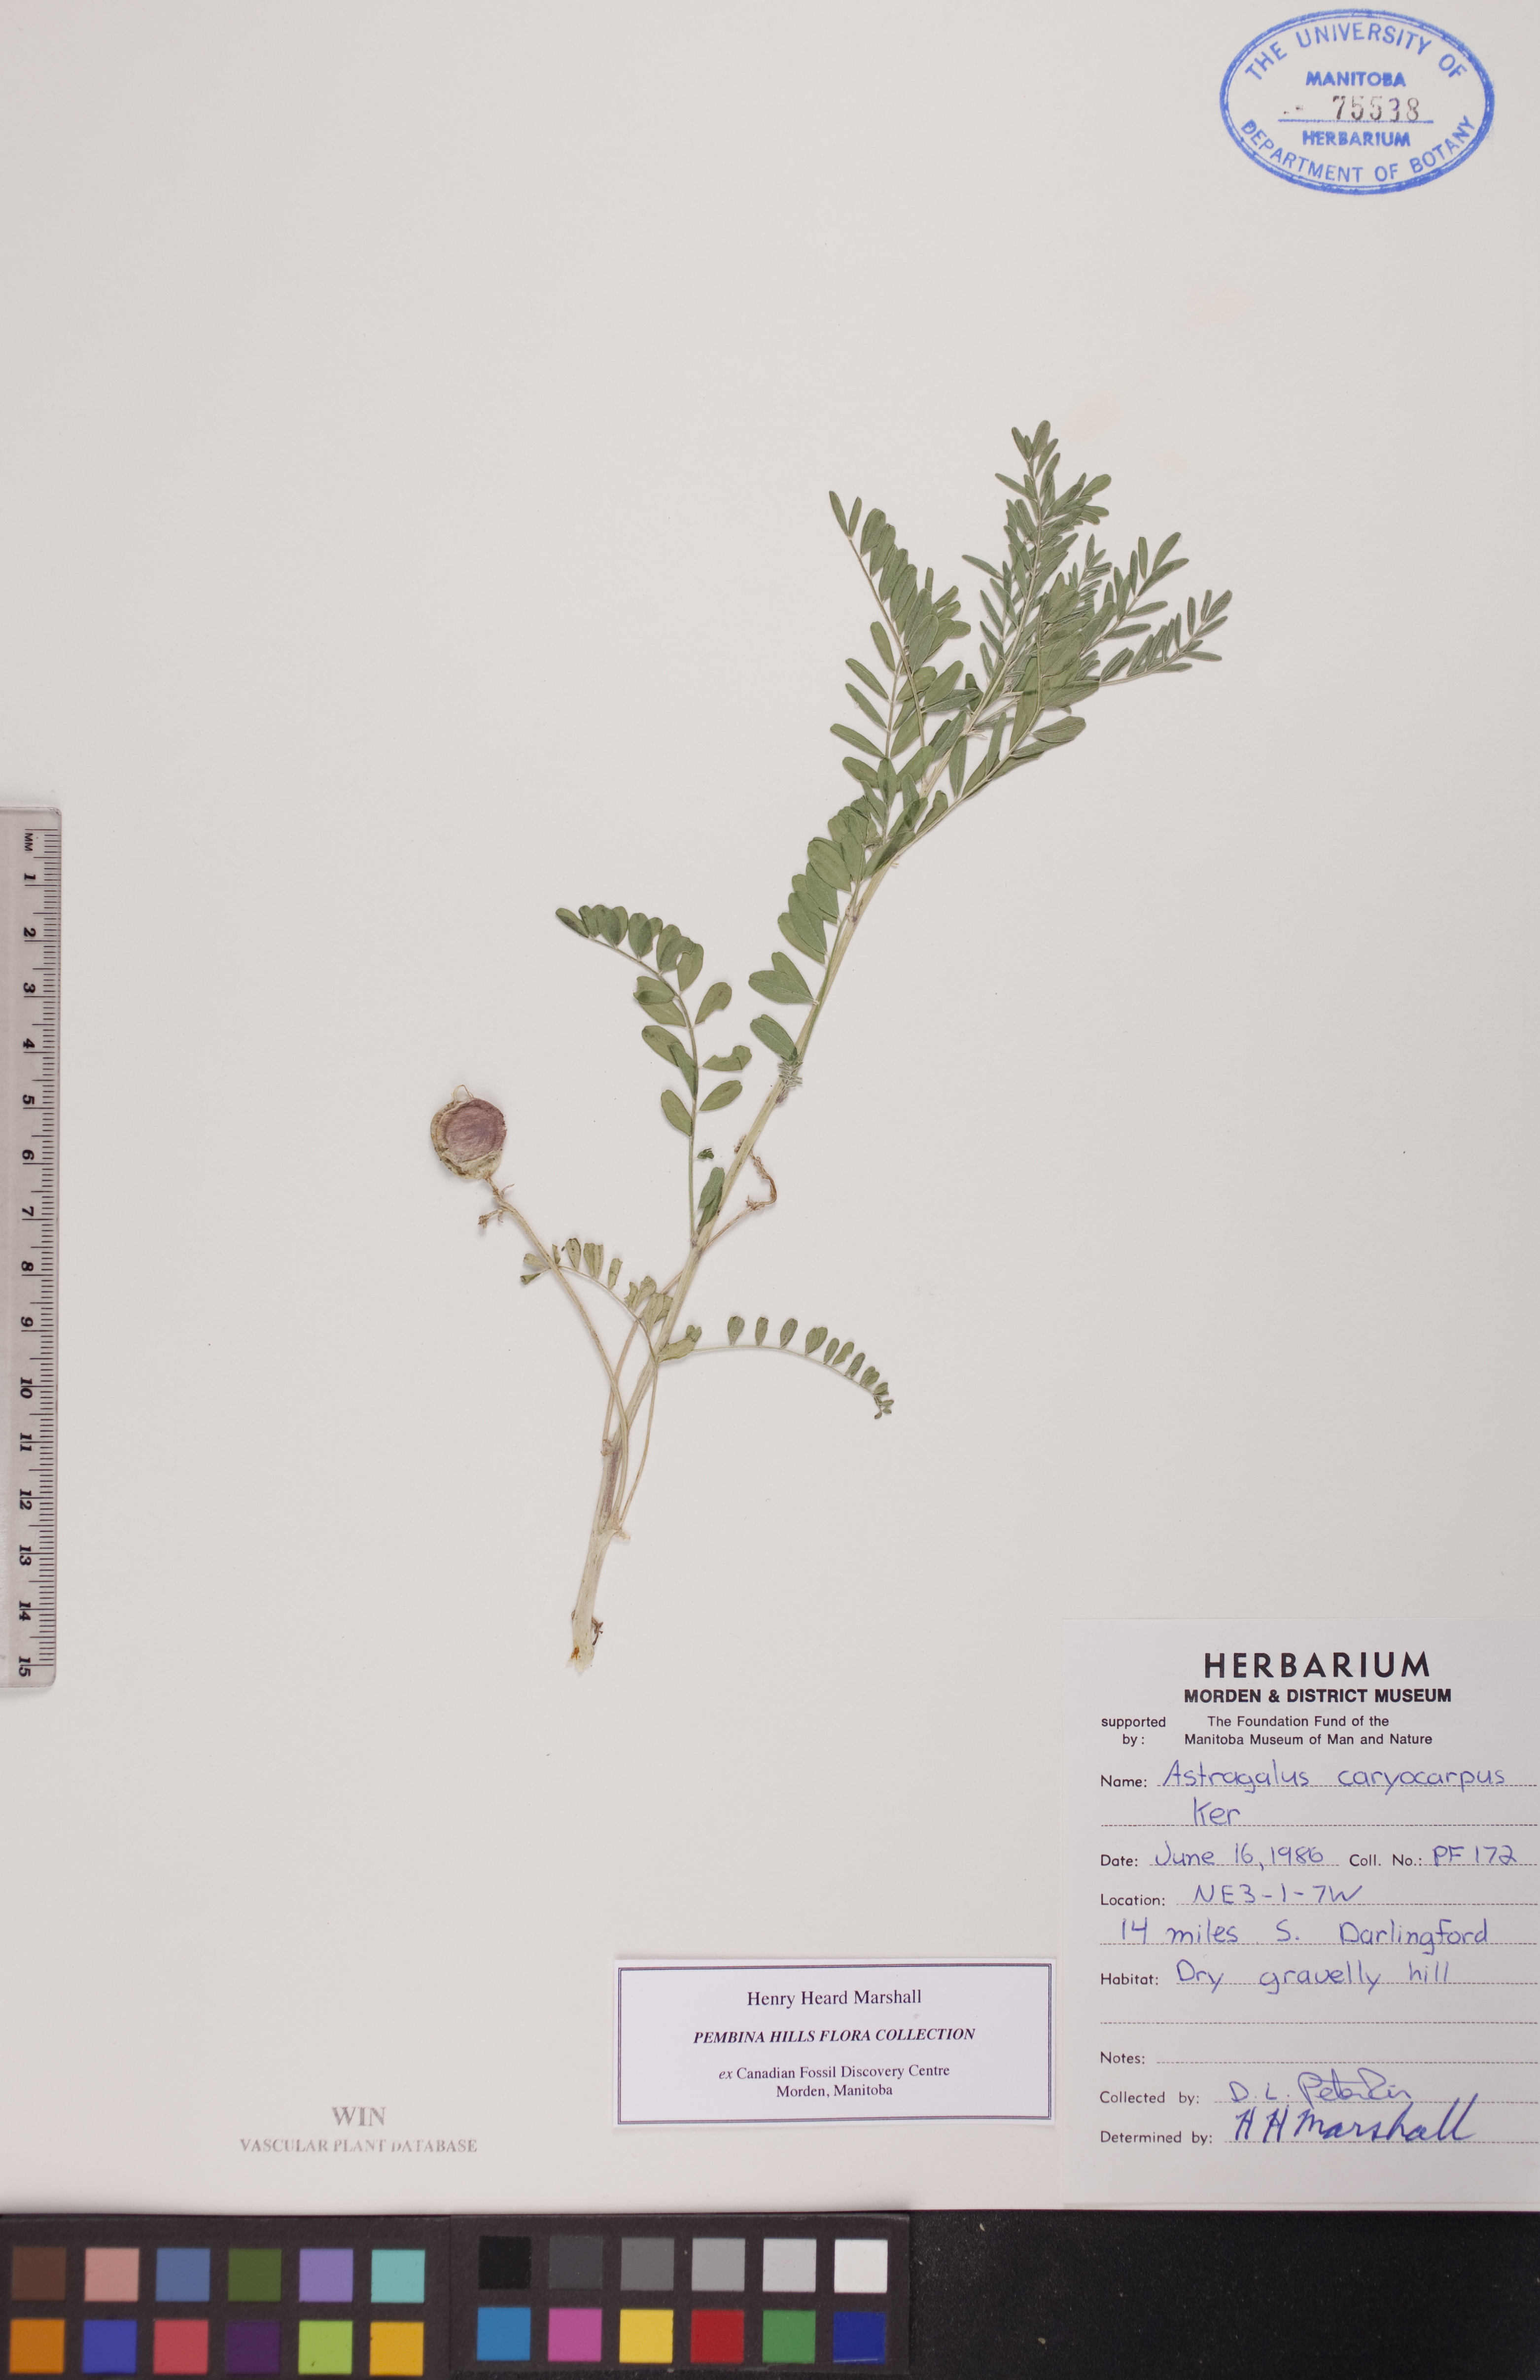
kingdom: Plantae
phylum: Tracheophyta
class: Magnoliopsida
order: Fabales
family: Fabaceae
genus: Astragalus
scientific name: Astragalus crassicarpus
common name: Ground-plum milk-vetch
